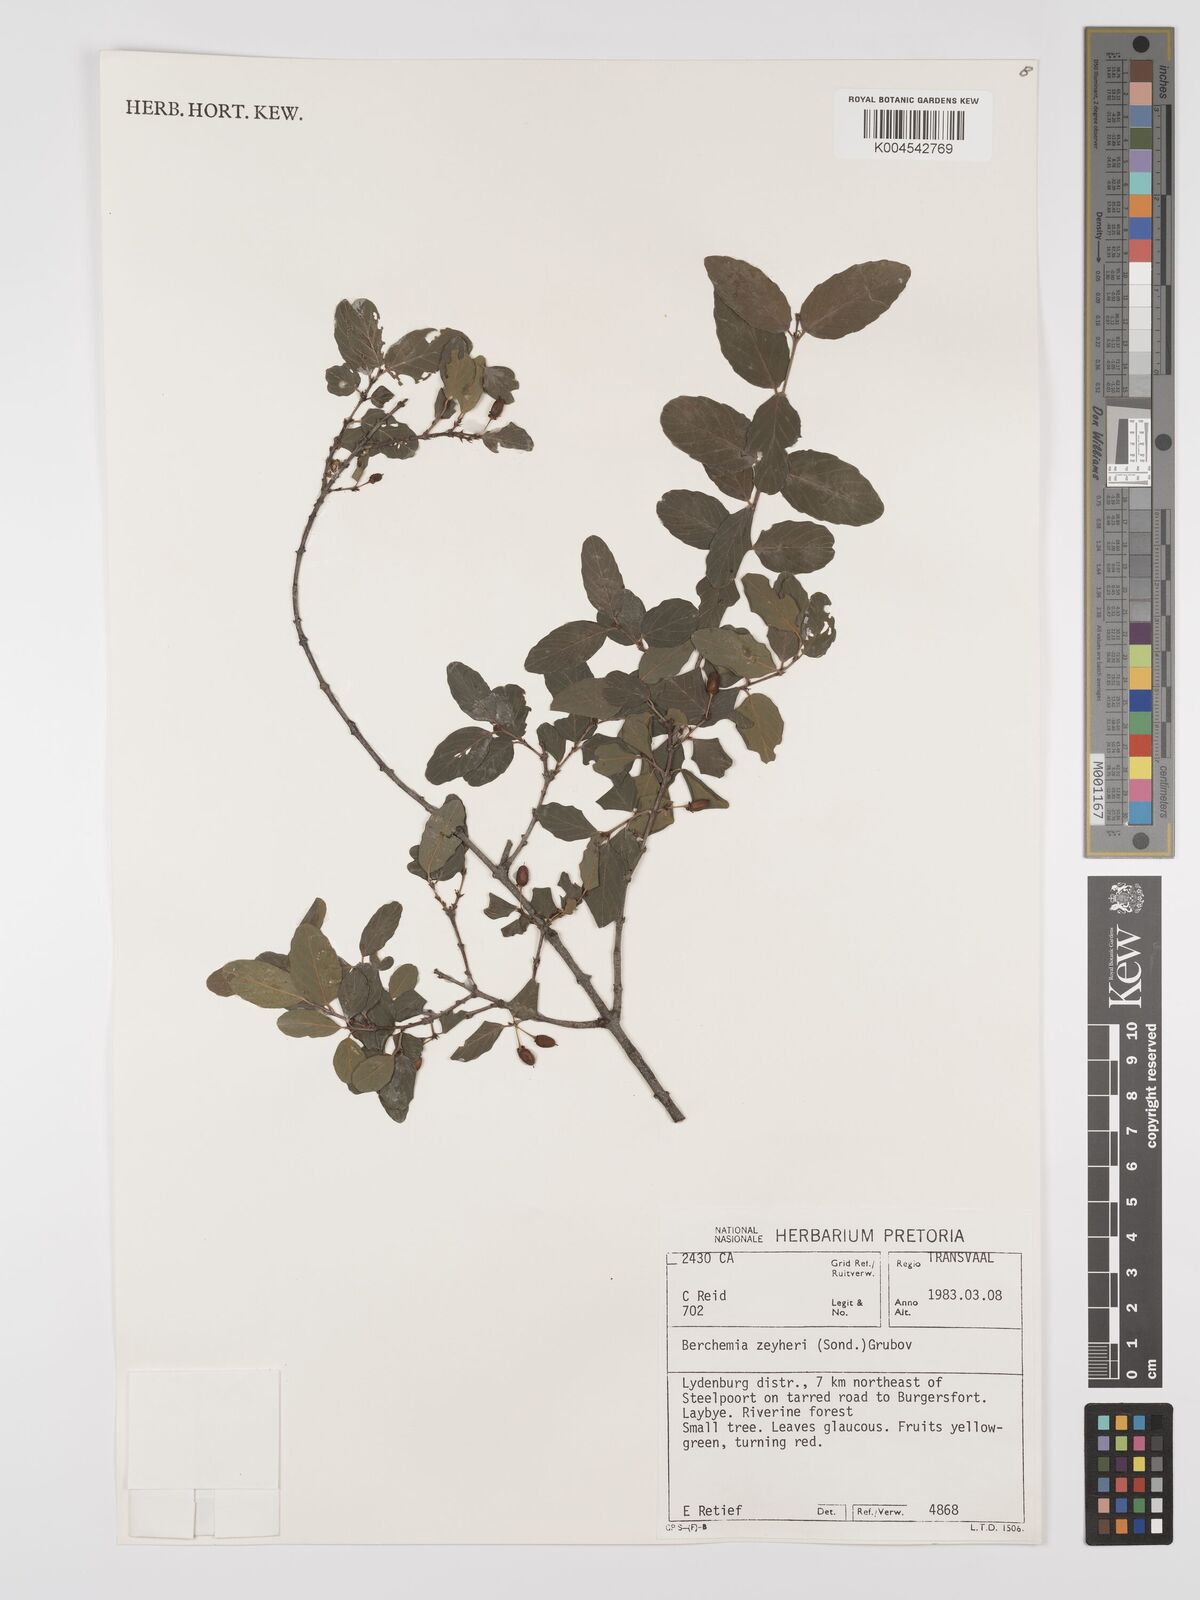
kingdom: Plantae
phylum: Tracheophyta
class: Magnoliopsida
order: Rosales
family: Rhamnaceae
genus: Phyllogeiton
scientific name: Phyllogeiton zeyheri
